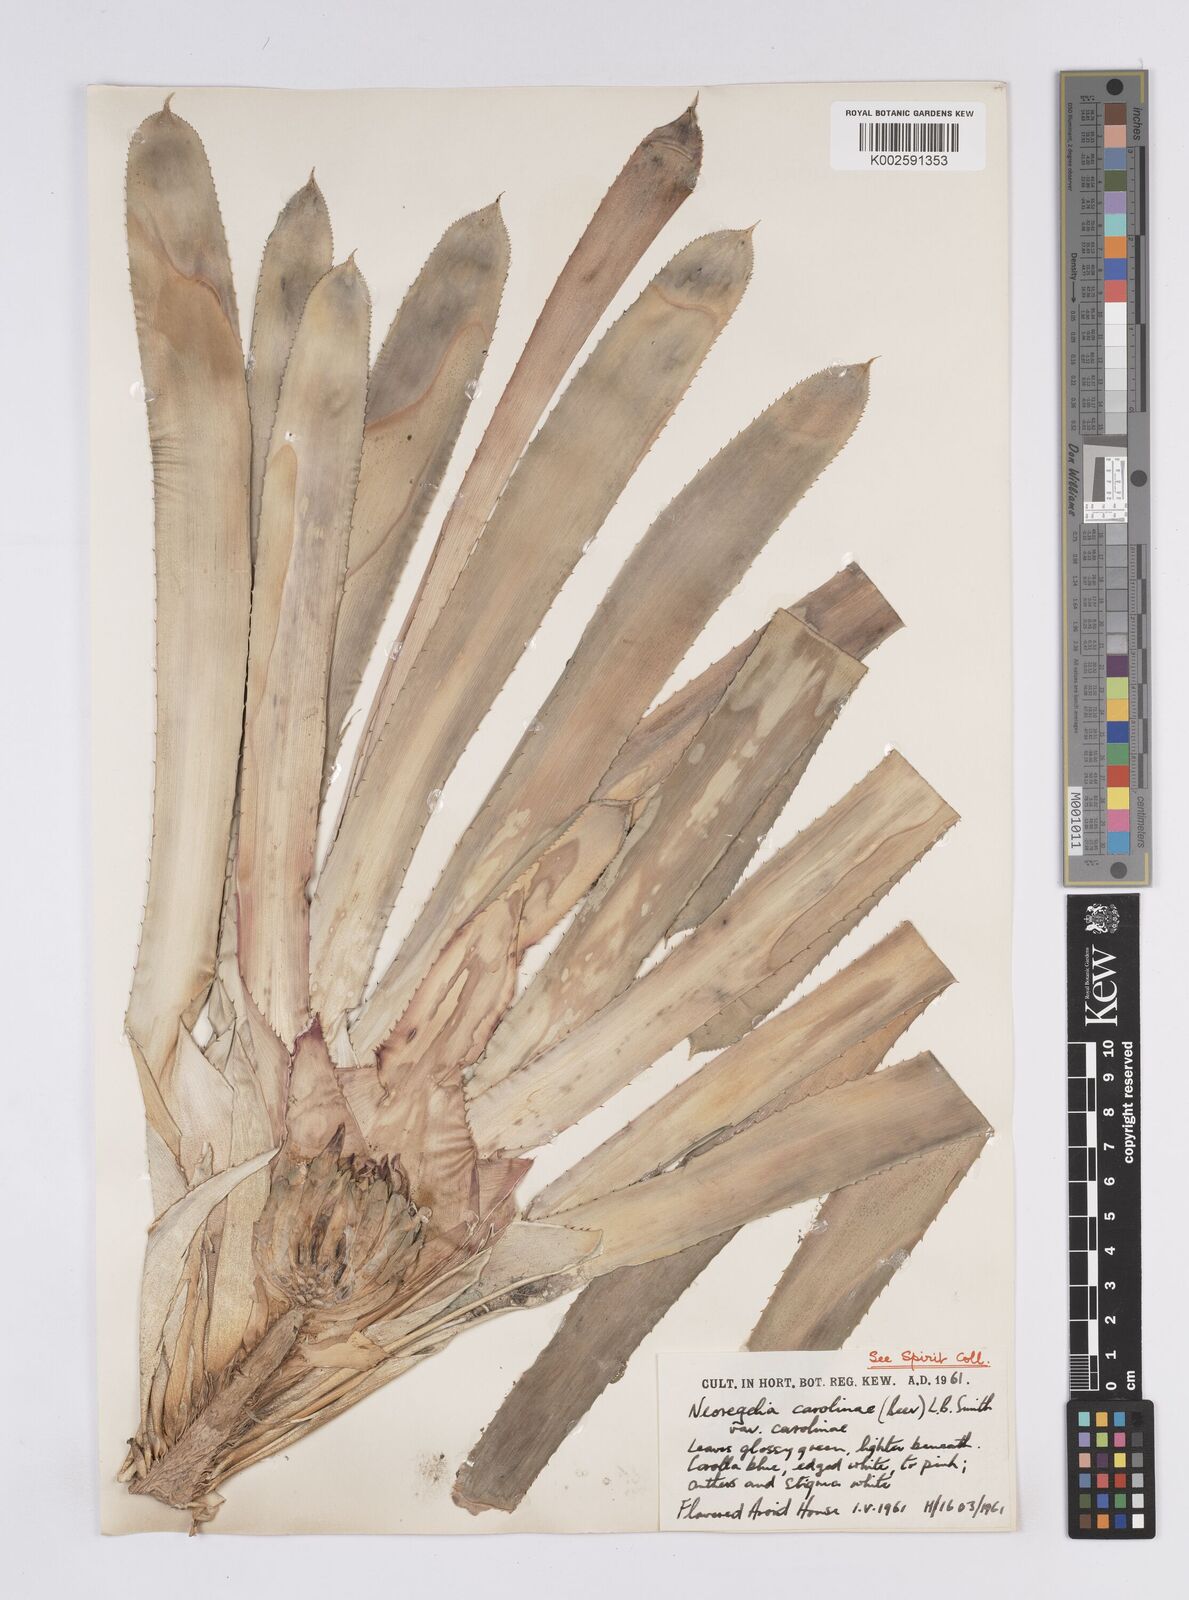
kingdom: Plantae
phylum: Tracheophyta
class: Liliopsida
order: Poales
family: Bromeliaceae
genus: Neoregelia
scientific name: Neoregelia carolinae
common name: Blushing bromeliad
